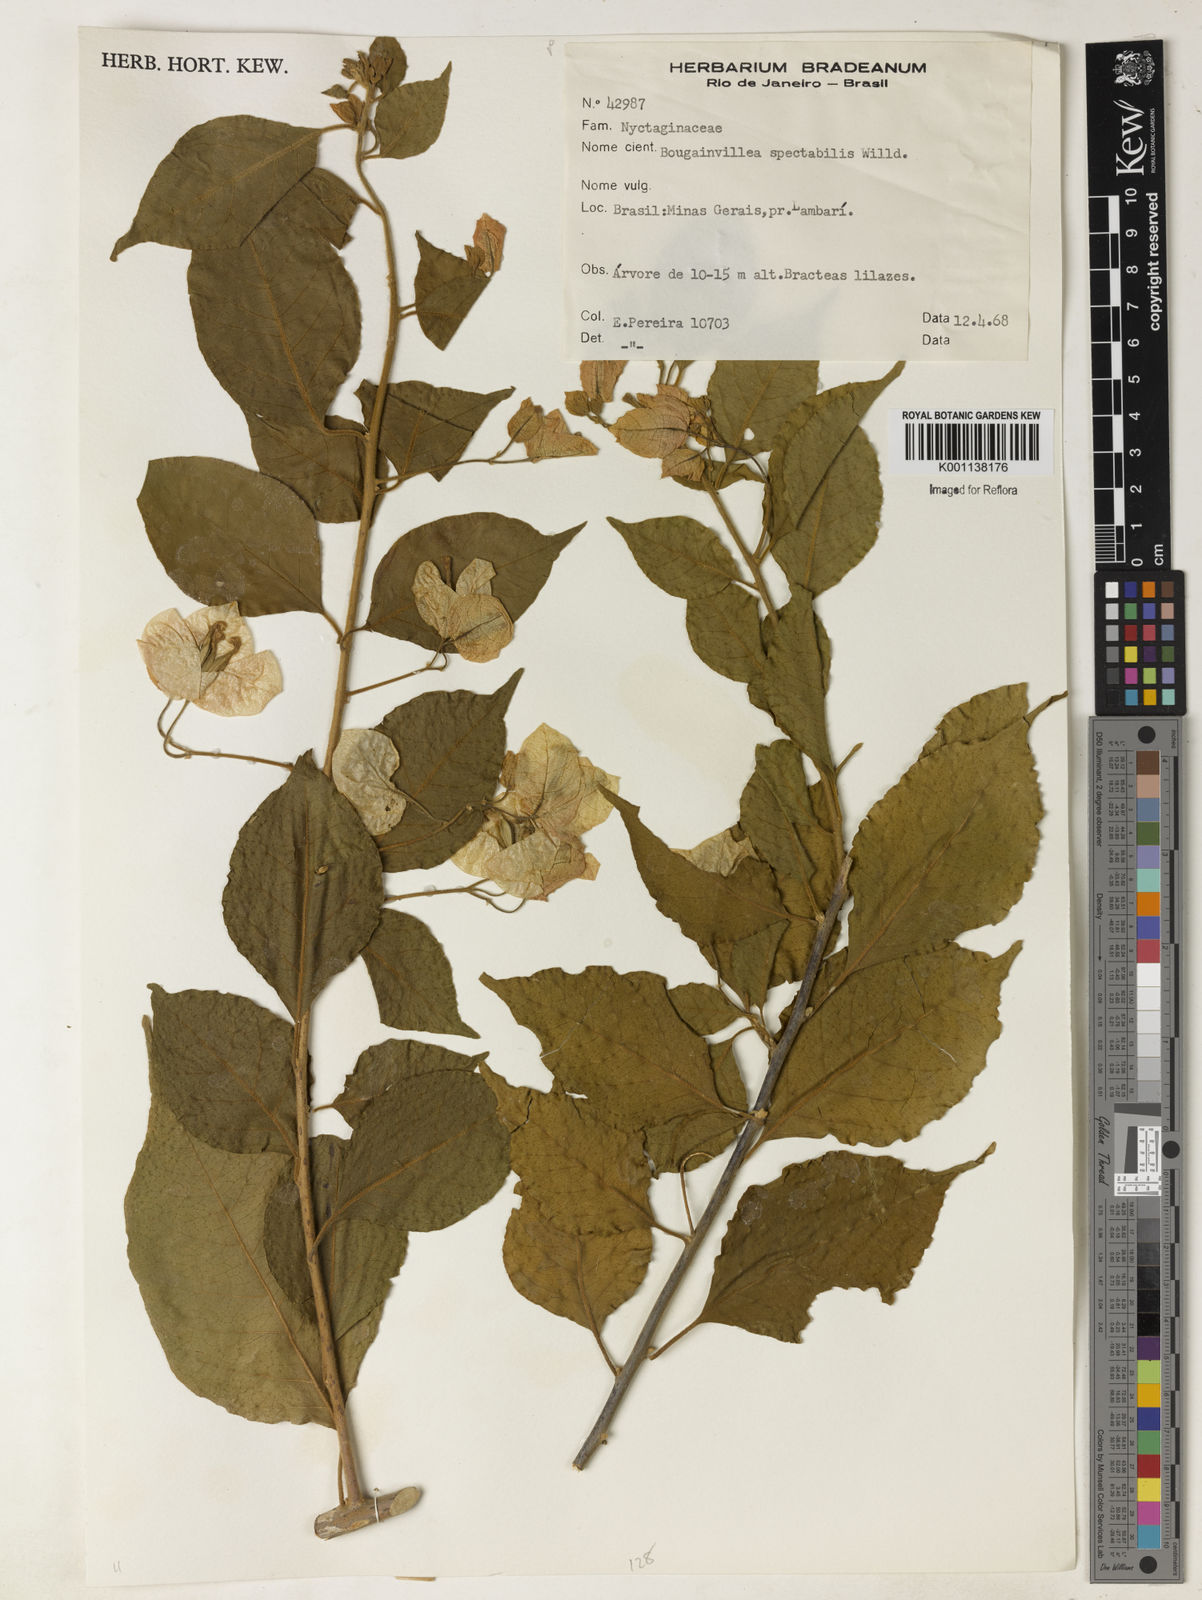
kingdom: Plantae
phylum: Tracheophyta
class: Magnoliopsida
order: Caryophyllales
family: Nyctaginaceae
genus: Bougainvillea
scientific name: Bougainvillea spectabilis
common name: Great bougainvillea
